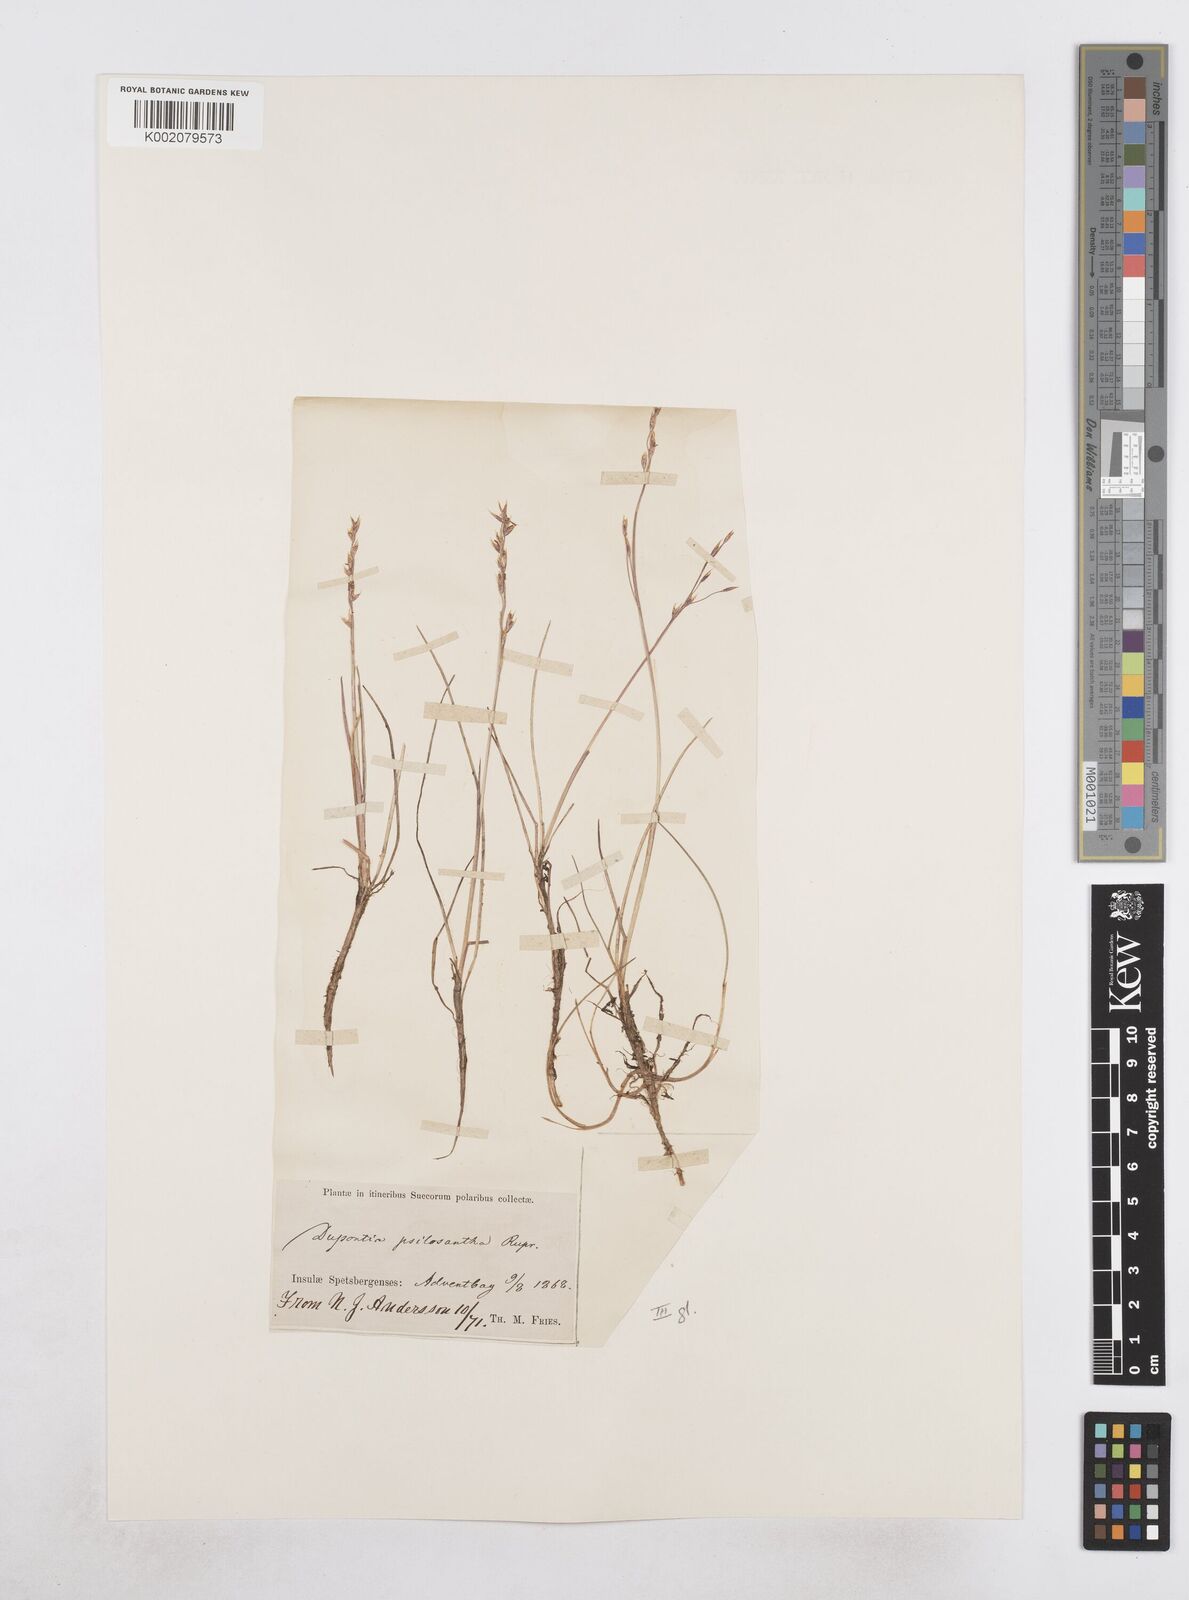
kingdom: Plantae
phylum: Tracheophyta
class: Liliopsida
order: Poales
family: Poaceae
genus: Dupontia
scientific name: Dupontia fisheri
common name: Tundra grass
